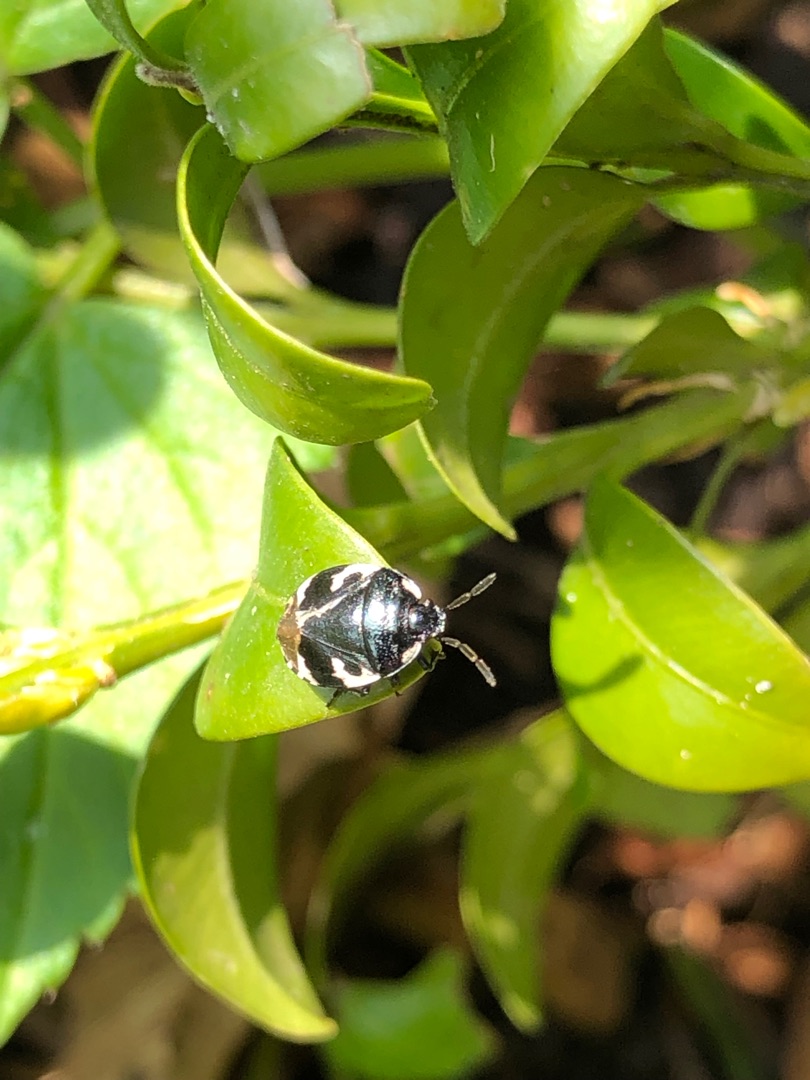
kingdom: Animalia
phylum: Arthropoda
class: Insecta
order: Hemiptera
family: Cydnidae
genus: Tritomegas
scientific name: Tritomegas bicolor
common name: Spættet tornben
